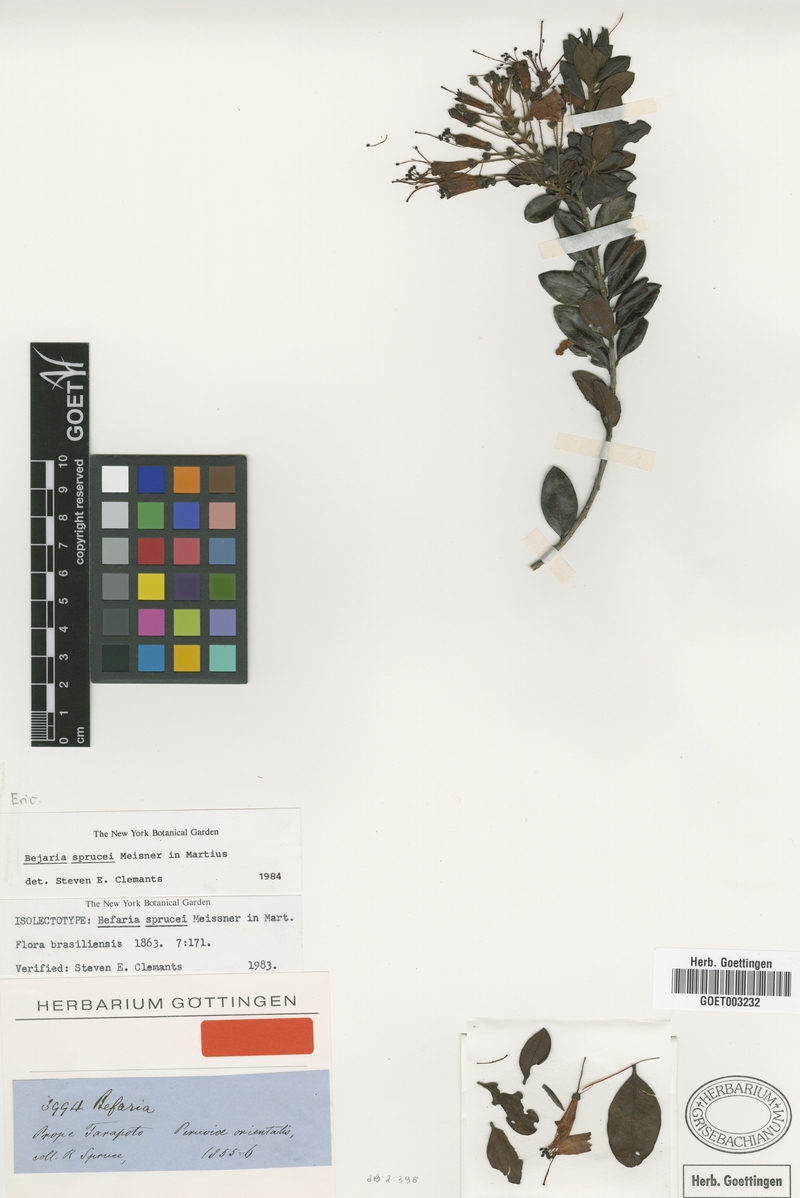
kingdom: Plantae
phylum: Tracheophyta
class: Magnoliopsida
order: Ericales
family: Ericaceae
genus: Bejaria
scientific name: Bejaria sprucei
